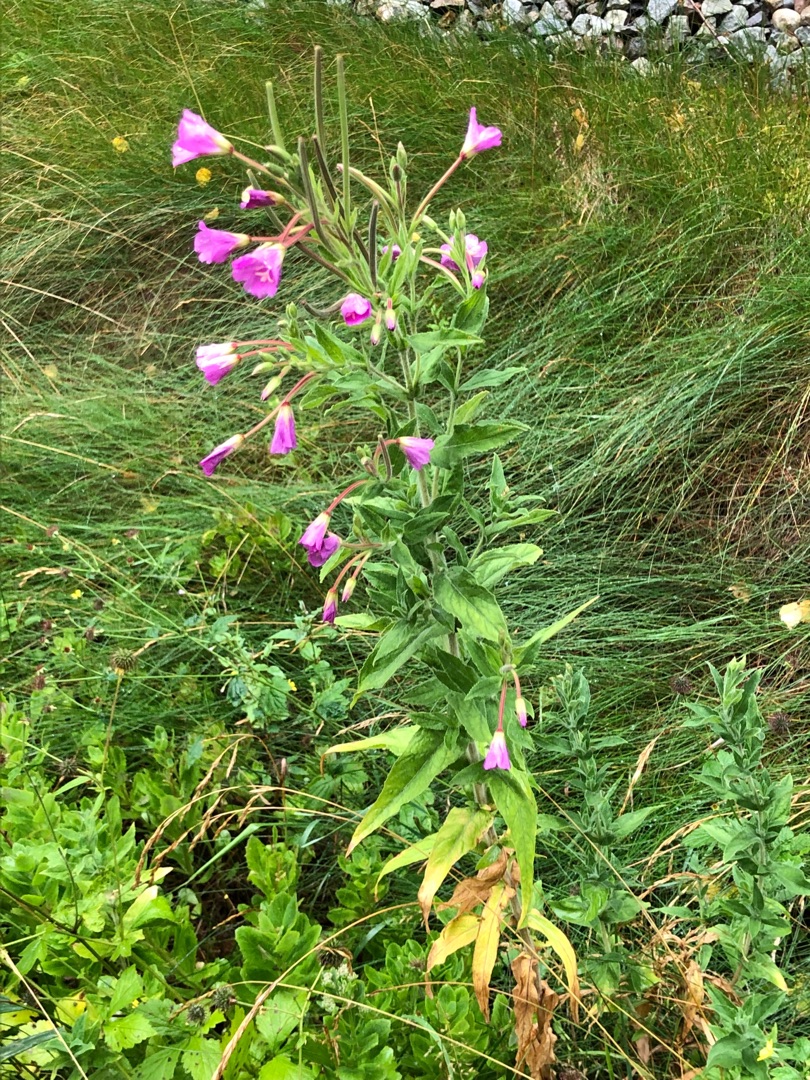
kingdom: Plantae
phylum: Tracheophyta
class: Magnoliopsida
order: Myrtales
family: Onagraceae
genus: Epilobium
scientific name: Epilobium hirsutum
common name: Lådden dueurt
